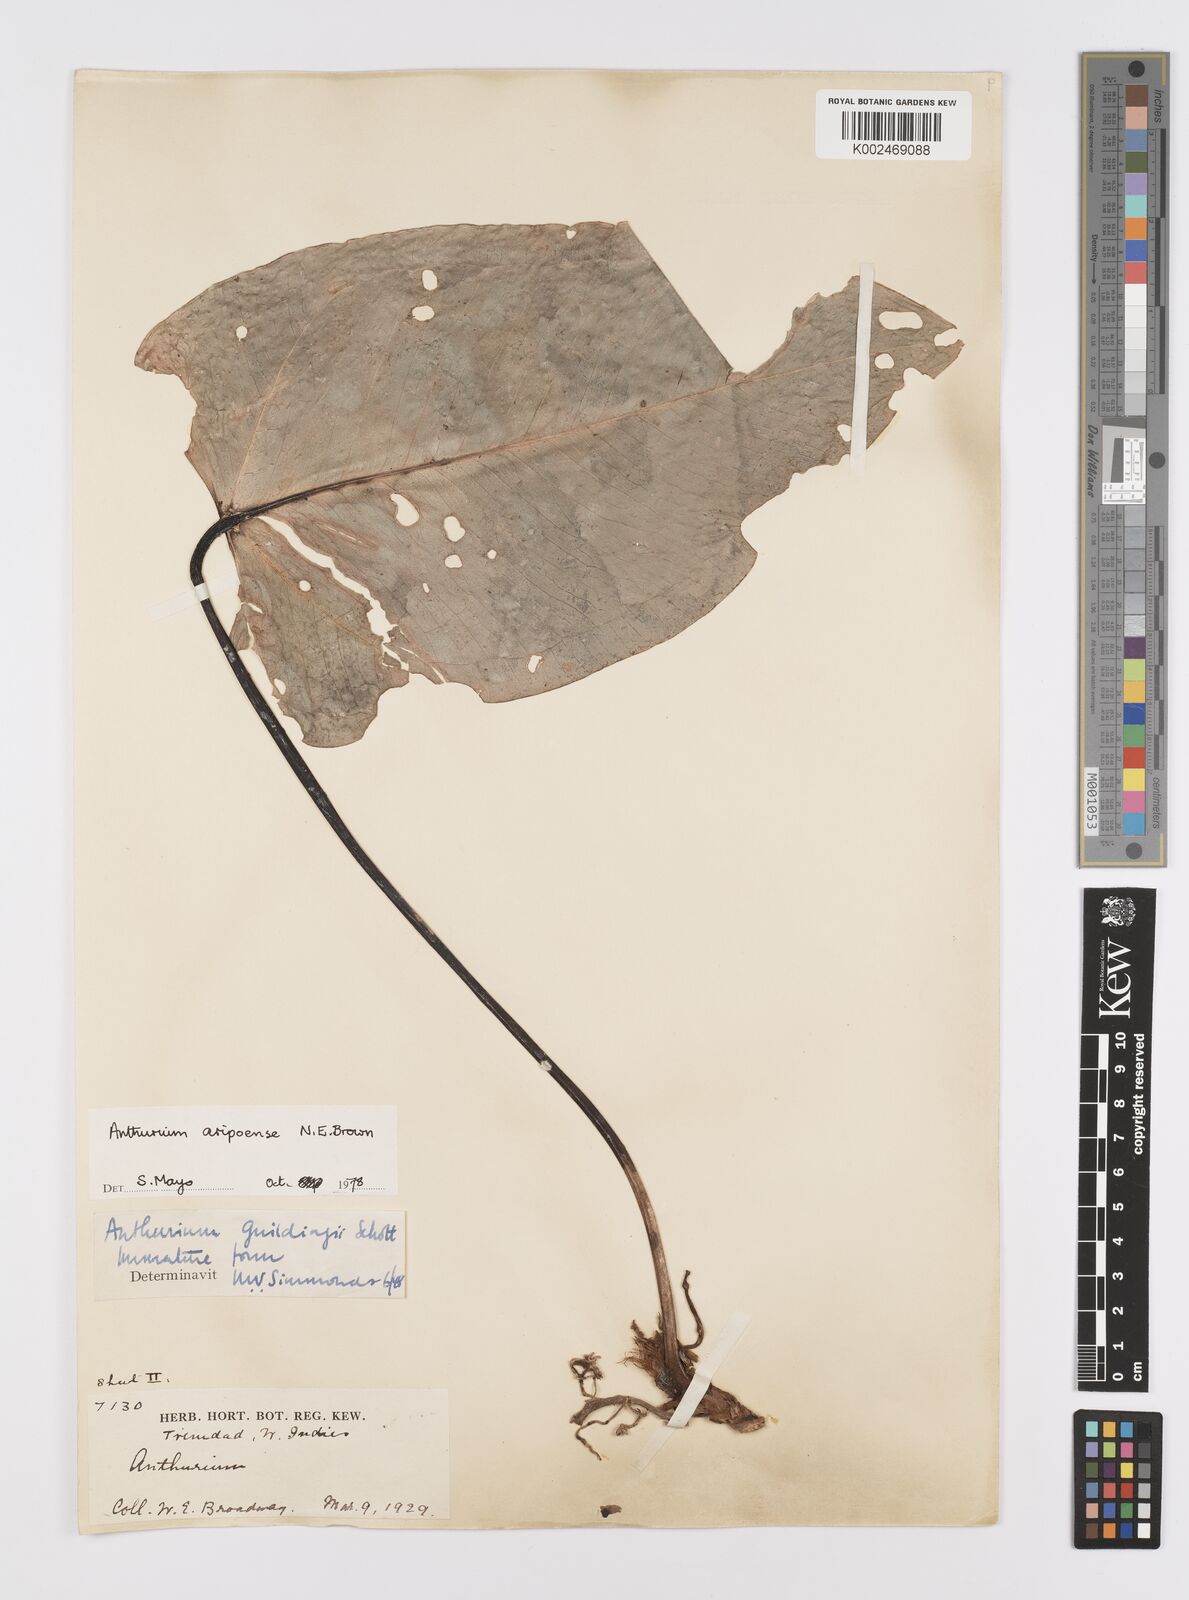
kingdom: Plantae
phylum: Tracheophyta
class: Liliopsida
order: Alismatales
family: Araceae
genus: Anthurium
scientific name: Anthurium aripoense
